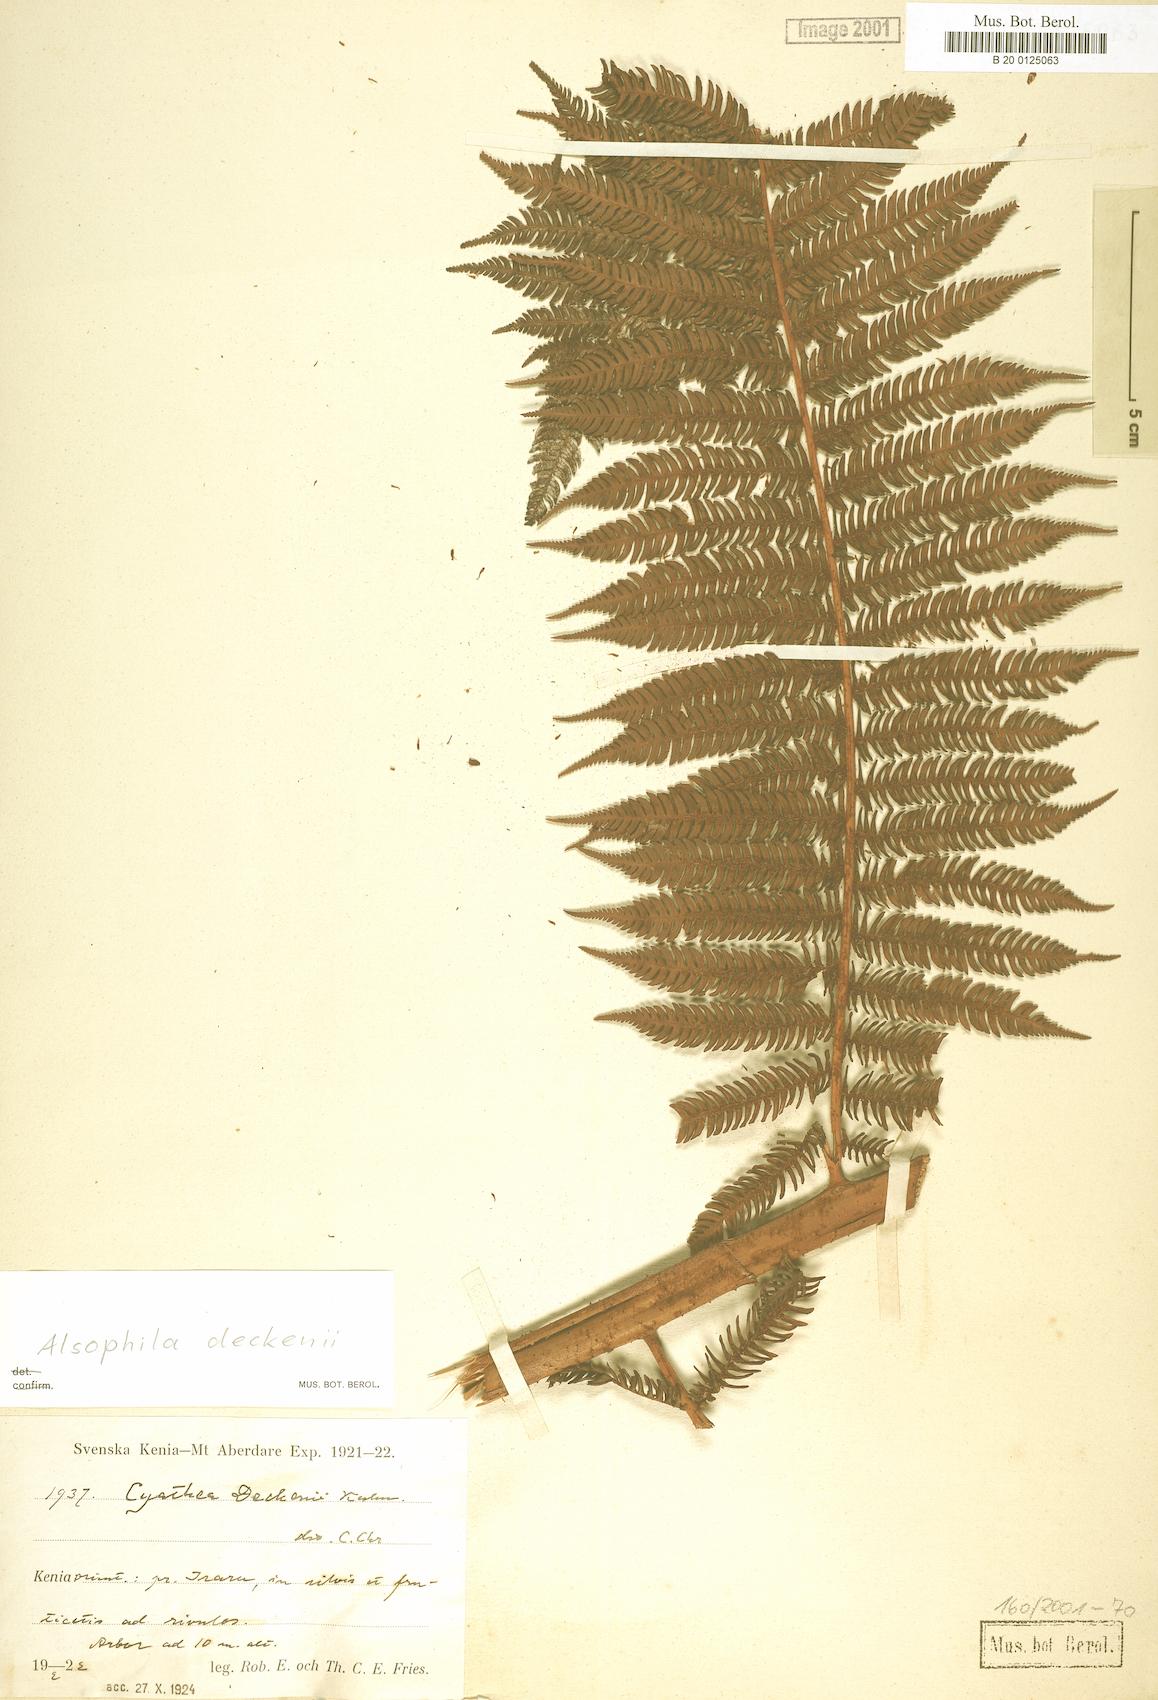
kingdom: Plantae
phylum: Tracheophyta
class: Polypodiopsida
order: Cyatheales
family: Cyatheaceae
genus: Alsophila
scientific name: Alsophila deckenii
